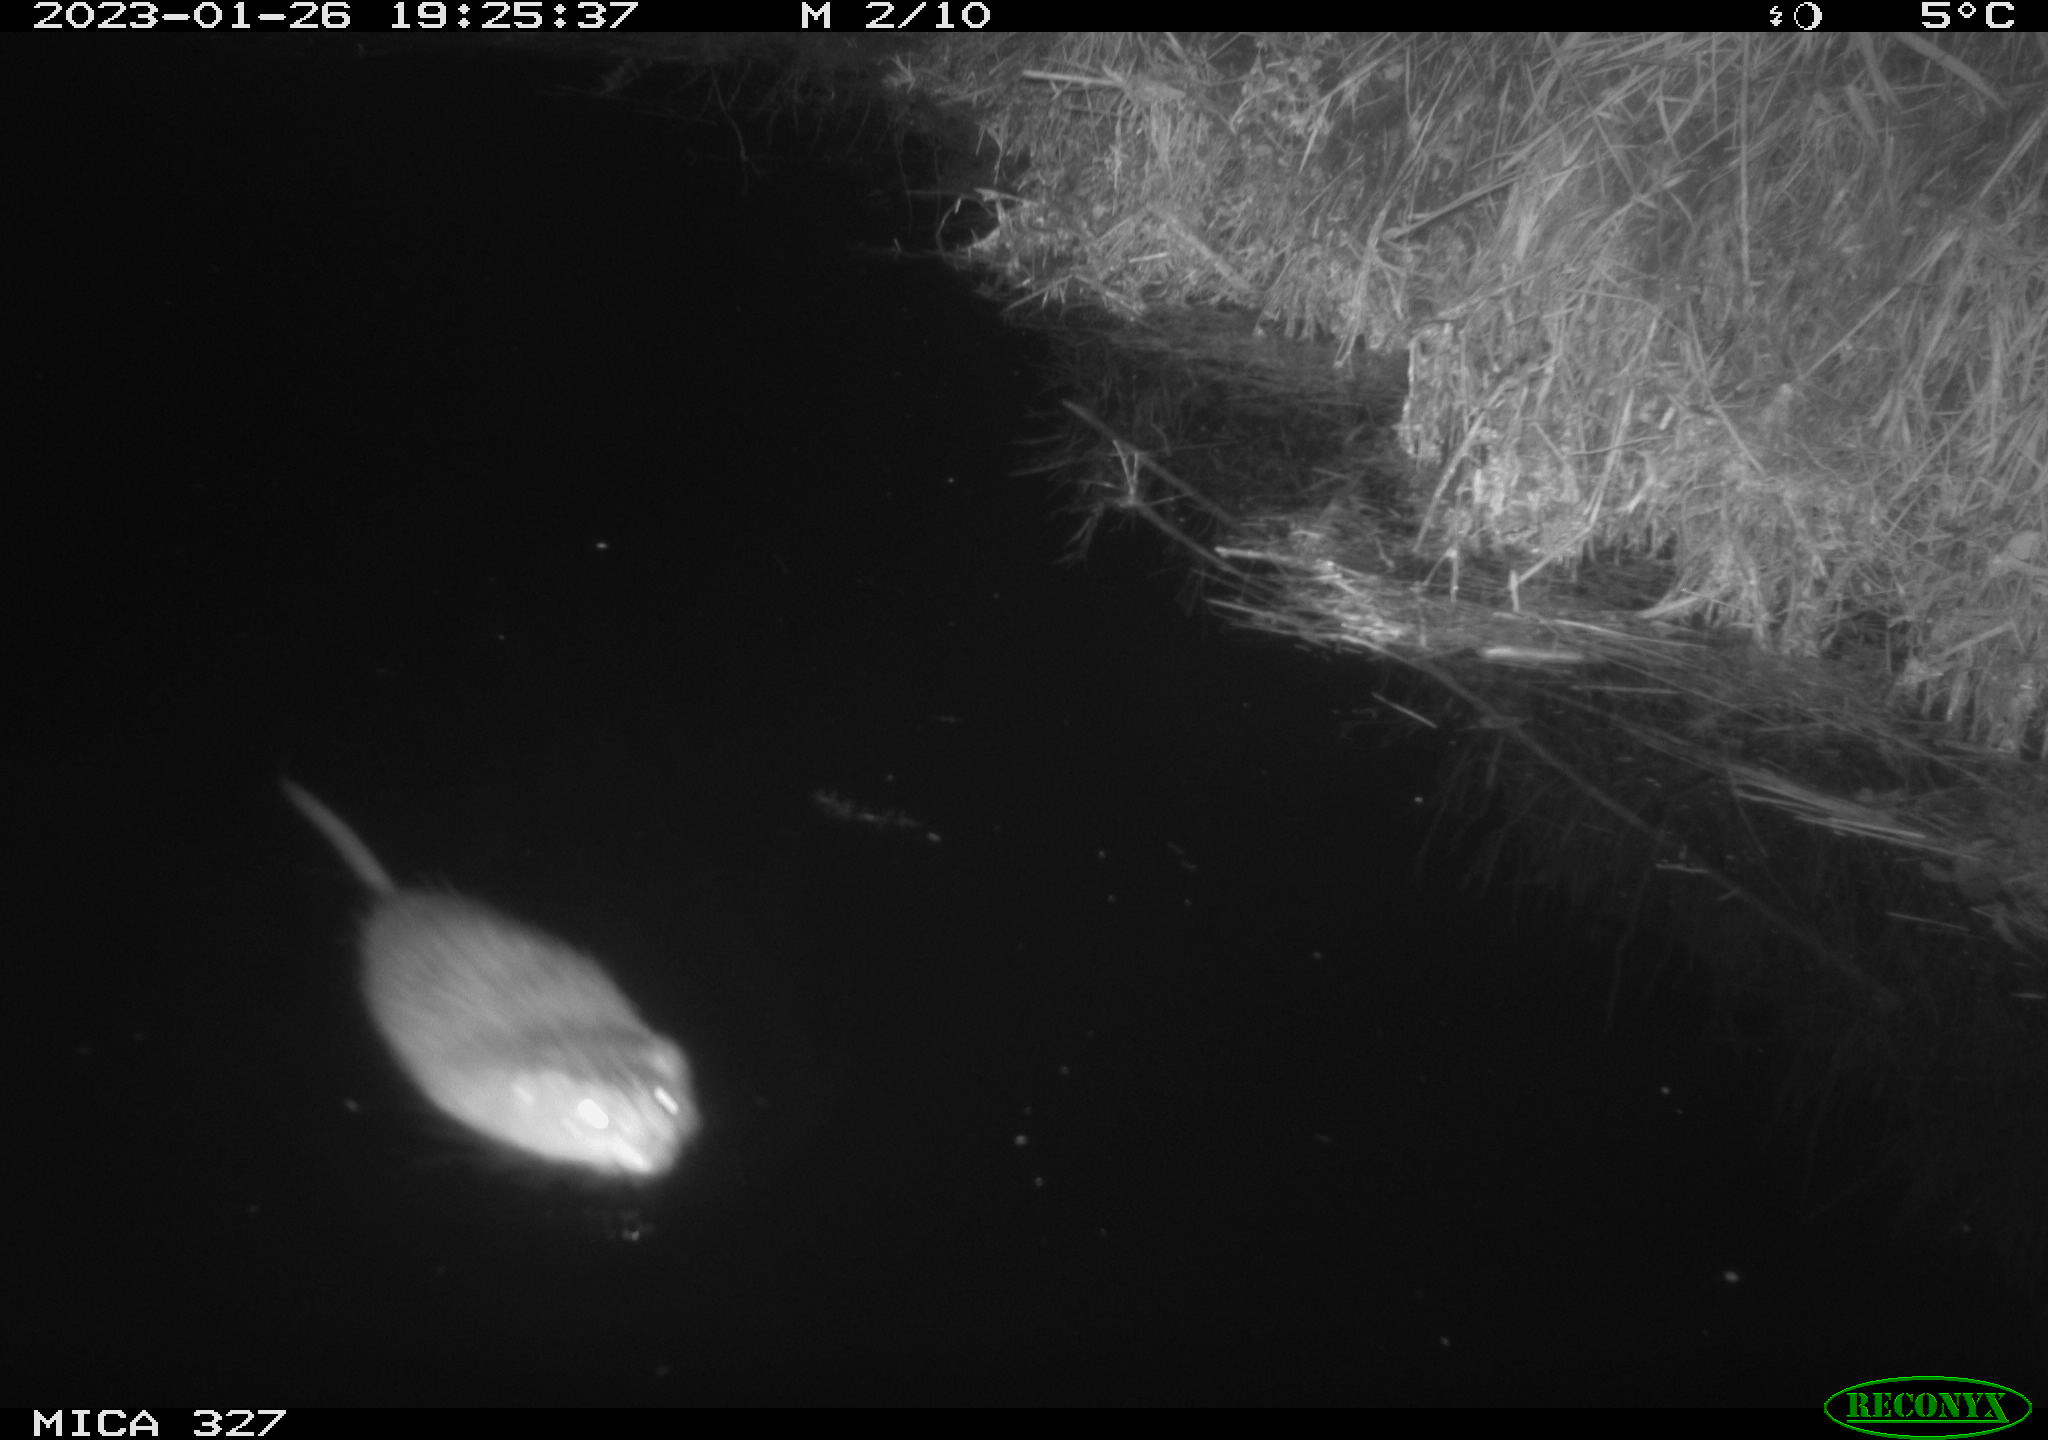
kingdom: Animalia
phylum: Chordata
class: Mammalia
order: Rodentia
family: Cricetidae
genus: Ondatra
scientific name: Ondatra zibethicus
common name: Muskrat
